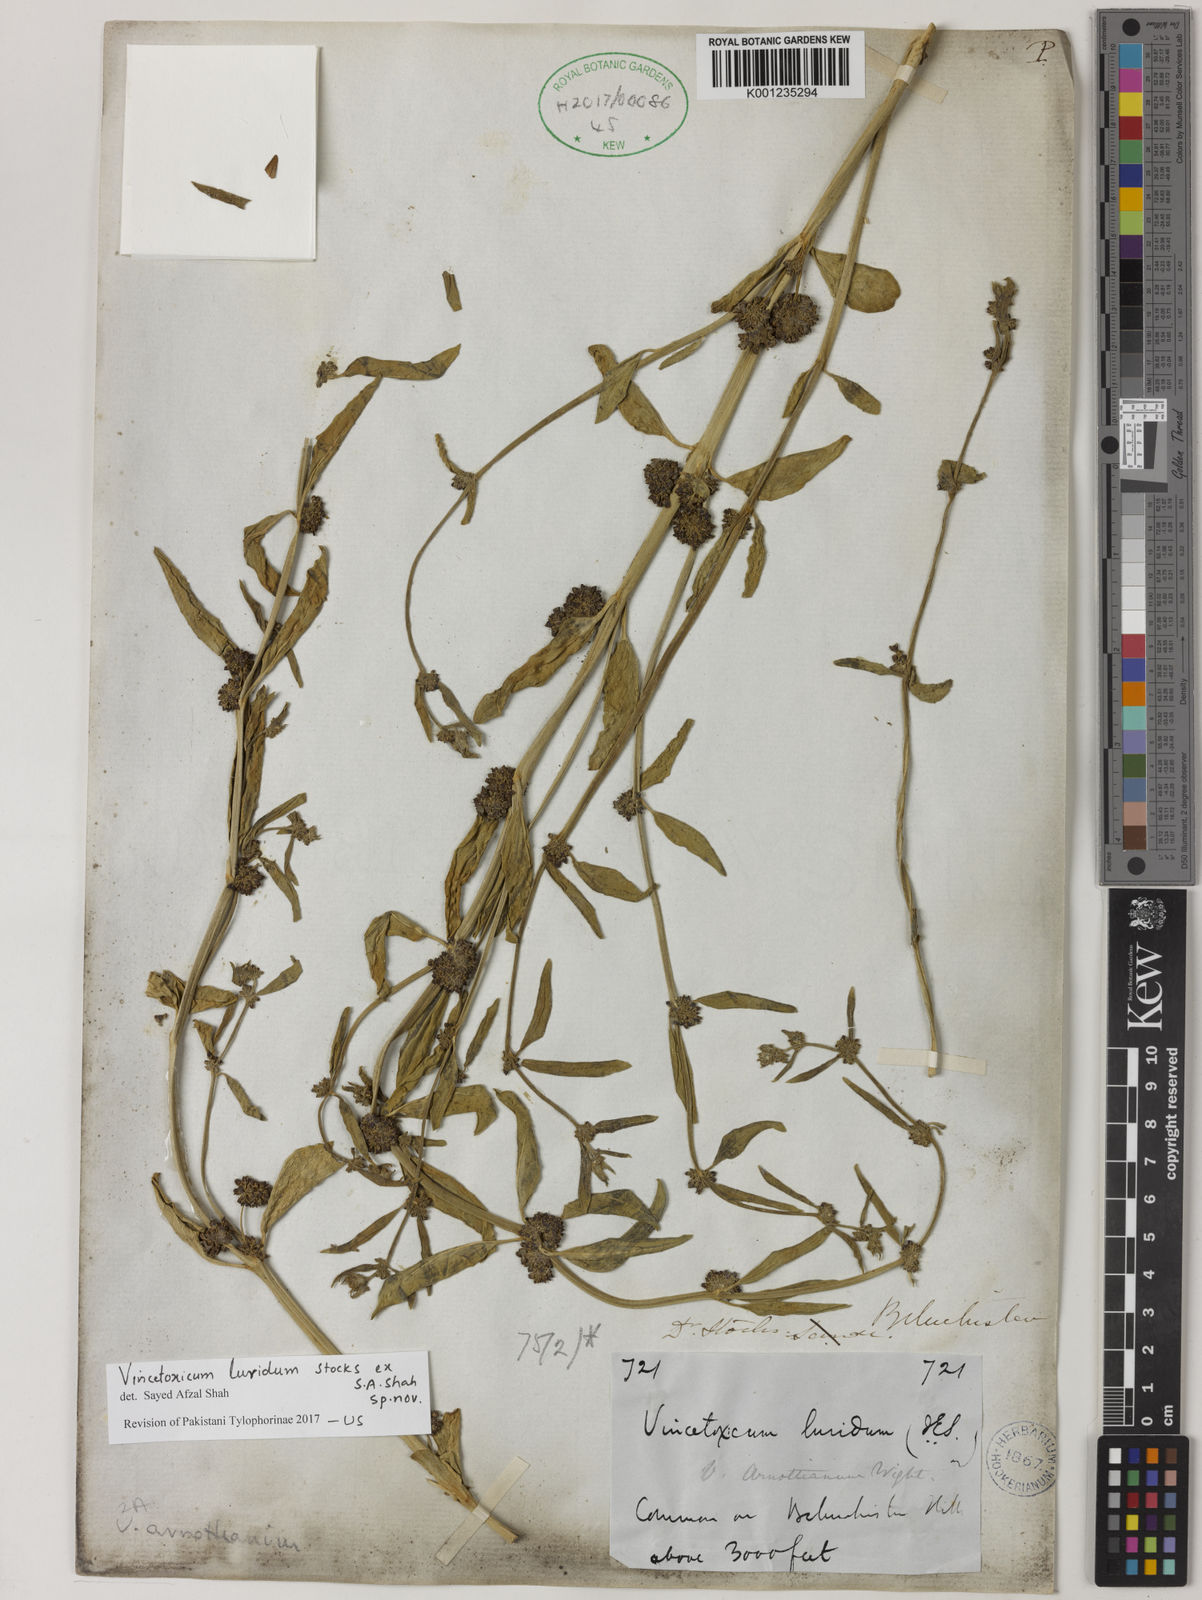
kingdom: Plantae
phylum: Tracheophyta
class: Magnoliopsida
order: Gentianales
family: Apocynaceae
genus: Vincetoxicum
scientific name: Vincetoxicum arnottianum
